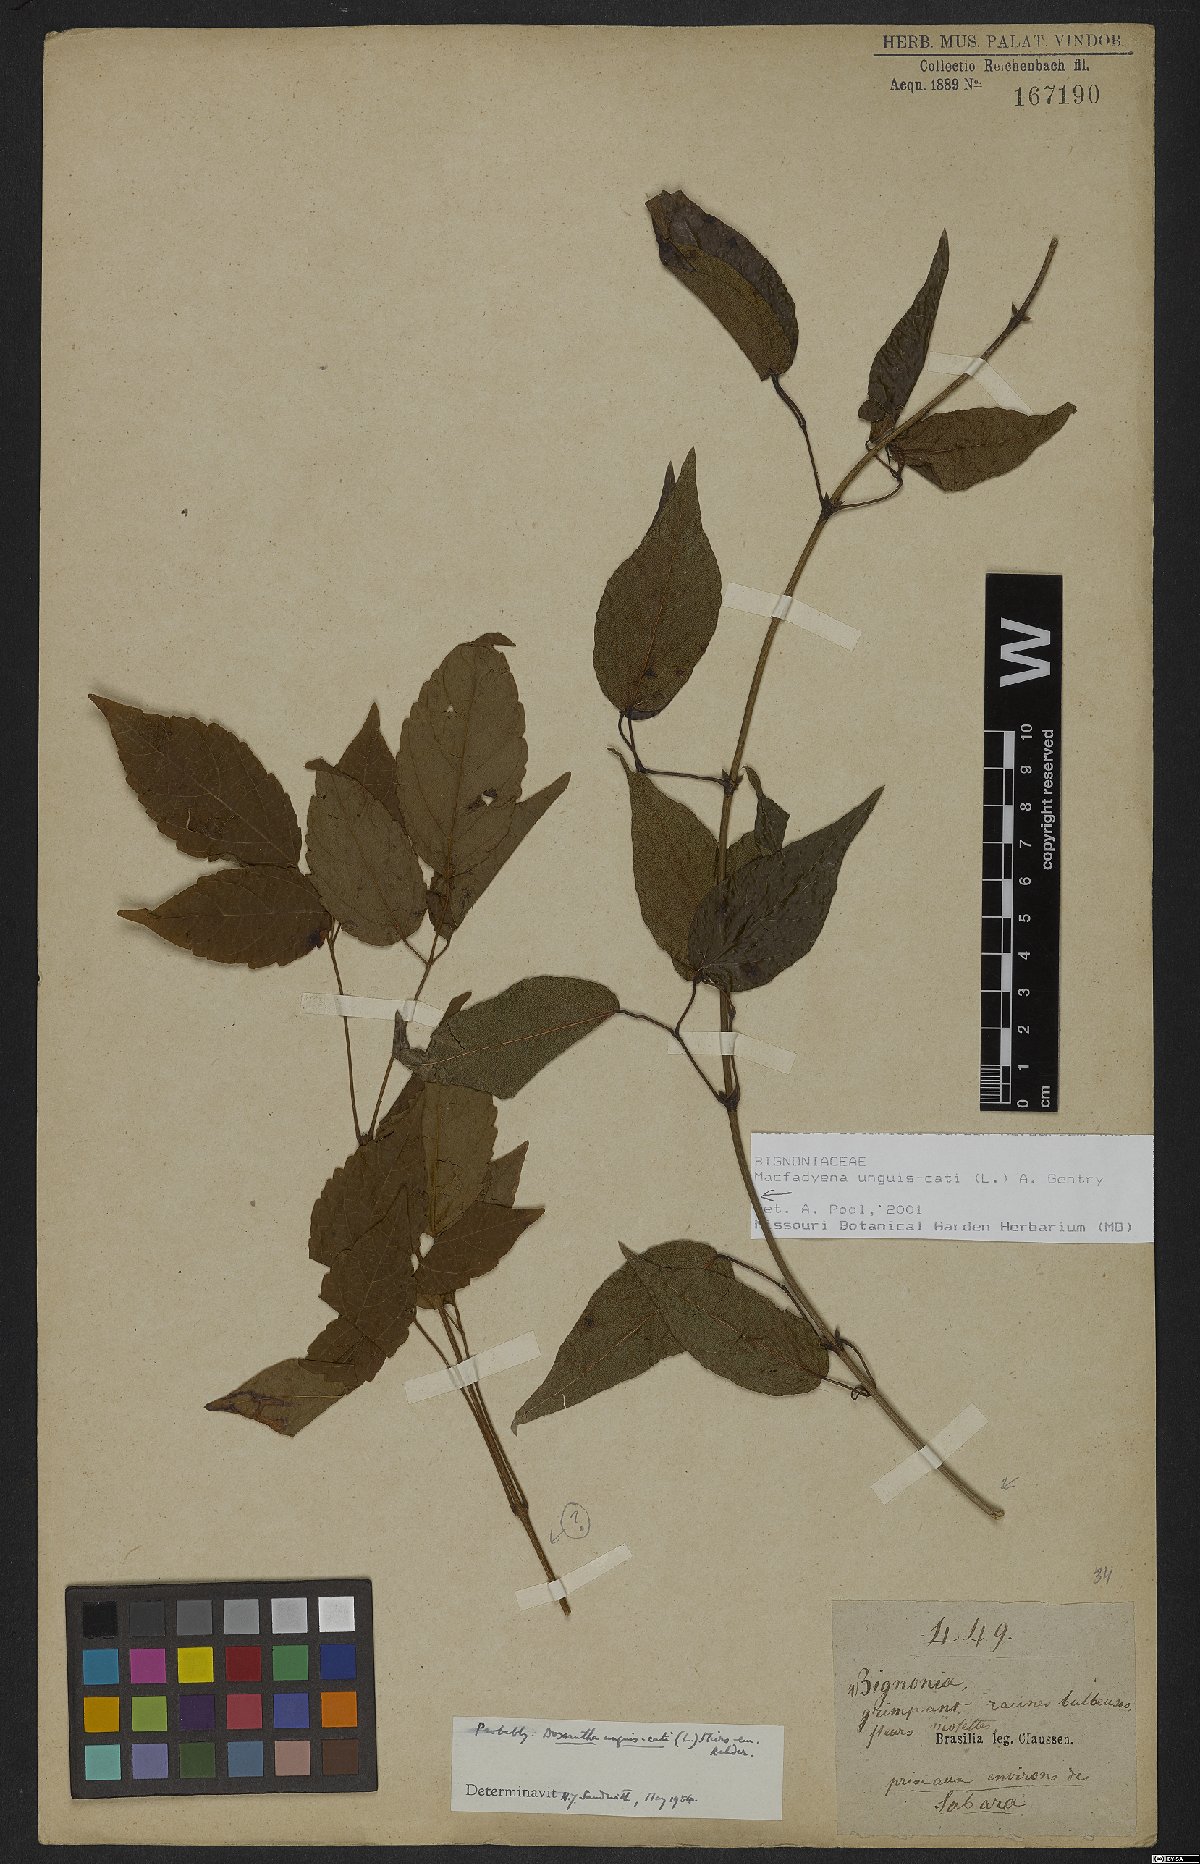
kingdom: Plantae
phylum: Tracheophyta
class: Magnoliopsida
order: Lamiales
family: Bignoniaceae
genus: Dolichandra
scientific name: Dolichandra unguis-cati
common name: Catclaw vine
